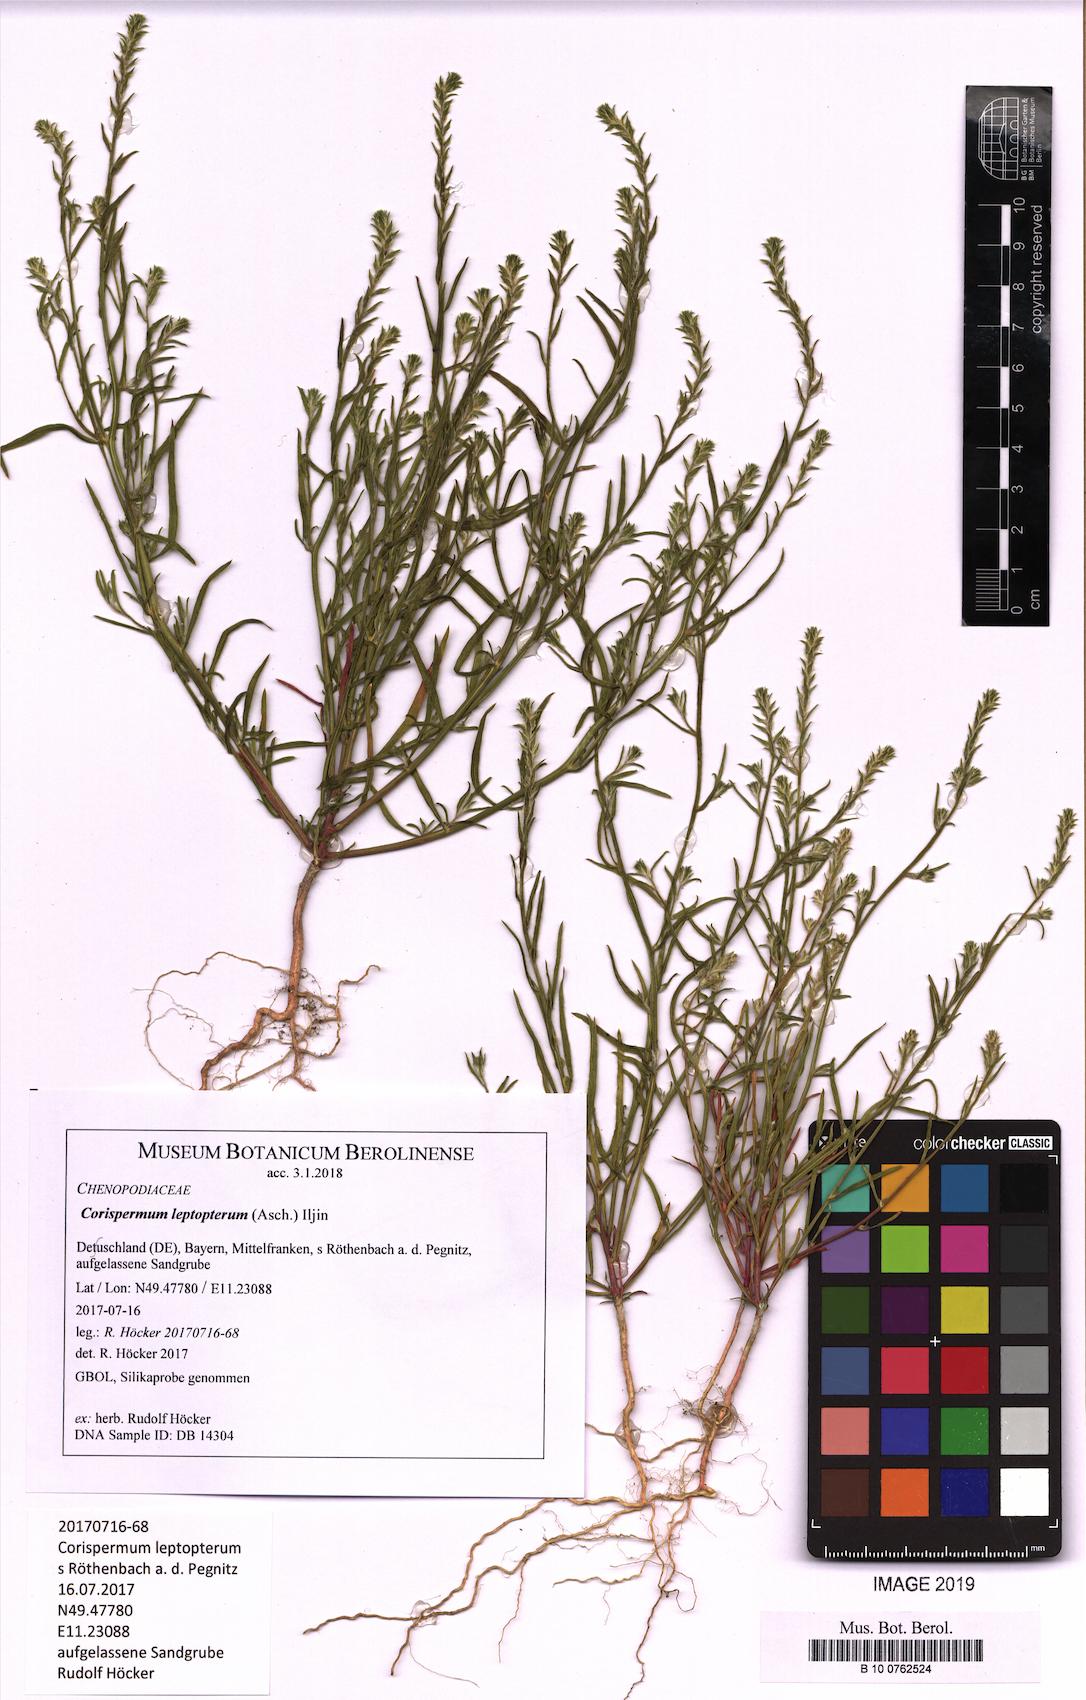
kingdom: Plantae
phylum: Tracheophyta
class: Magnoliopsida
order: Caryophyllales
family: Amaranthaceae
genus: Corispermum
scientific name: Corispermum pallasii
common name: Siberian bugseed
